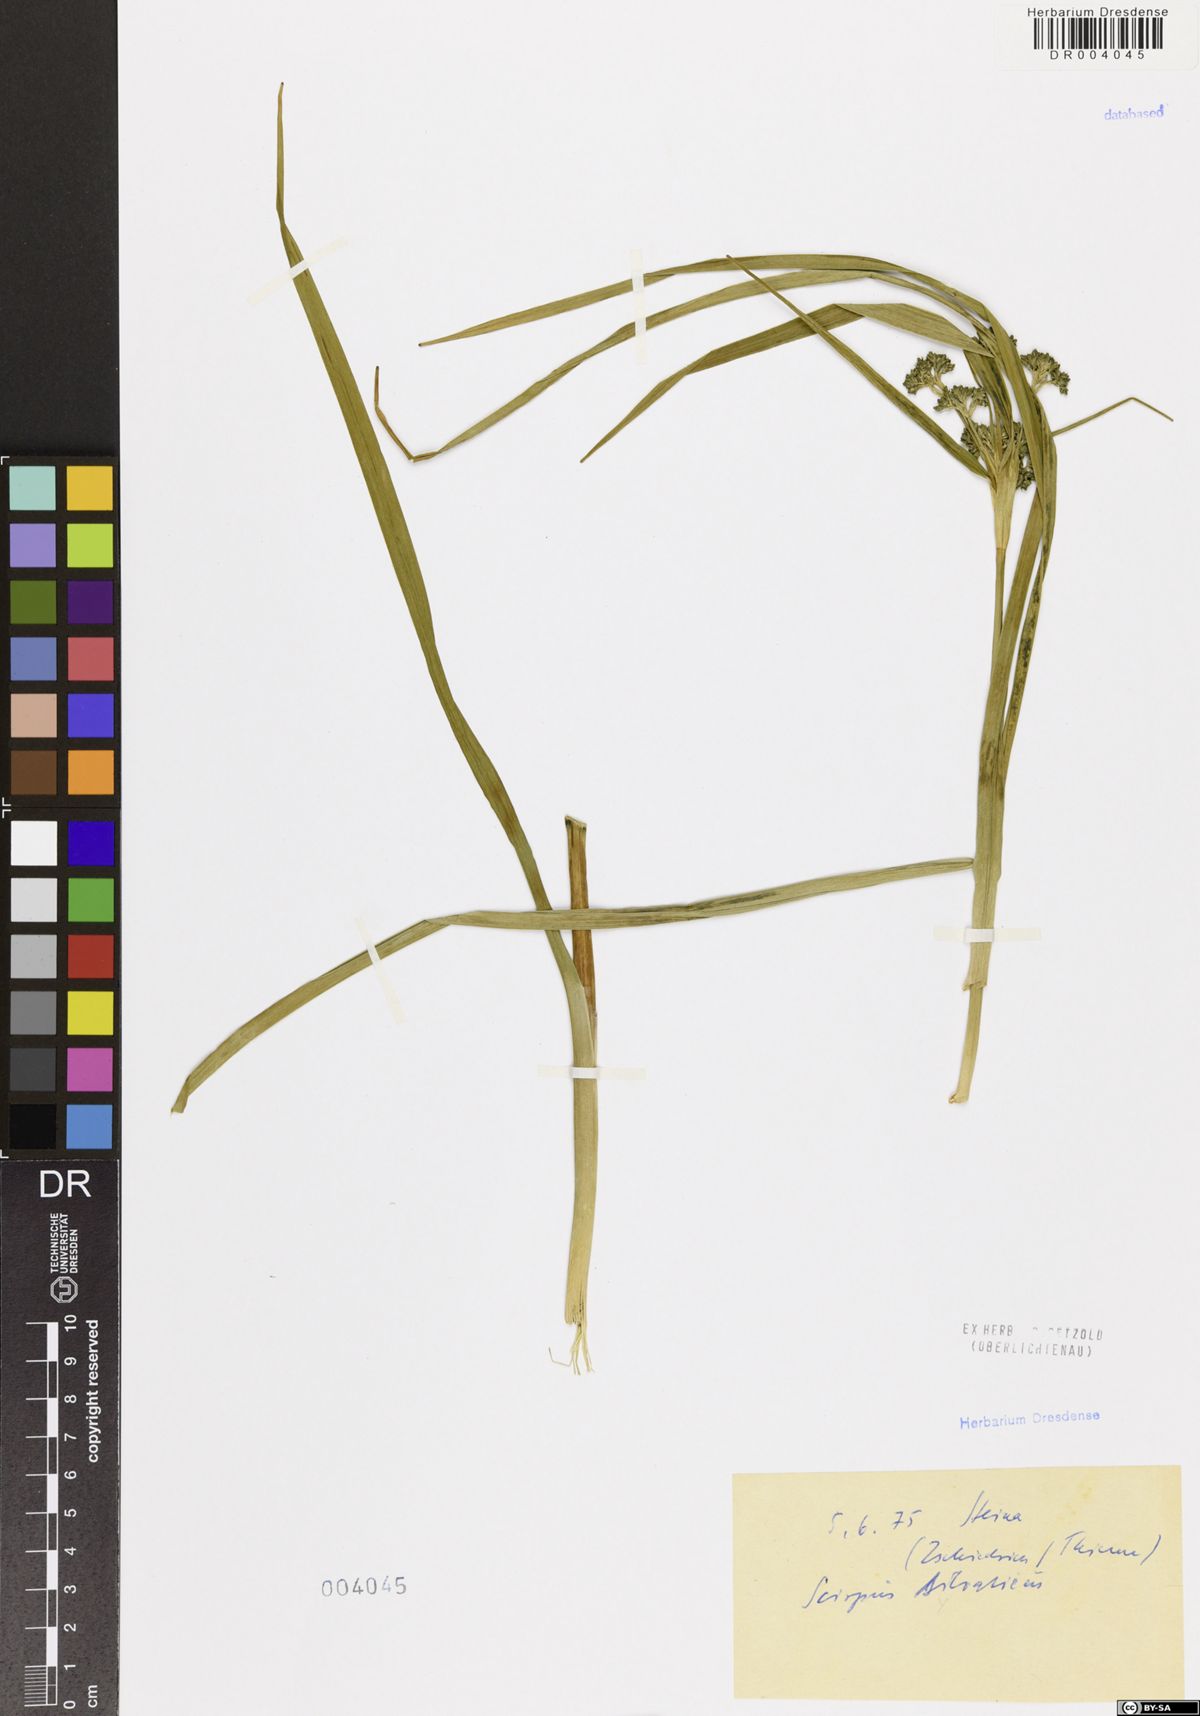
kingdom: Plantae
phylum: Tracheophyta
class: Liliopsida
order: Poales
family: Cyperaceae
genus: Scirpus
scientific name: Scirpus sylvaticus
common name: Wood club-rush
